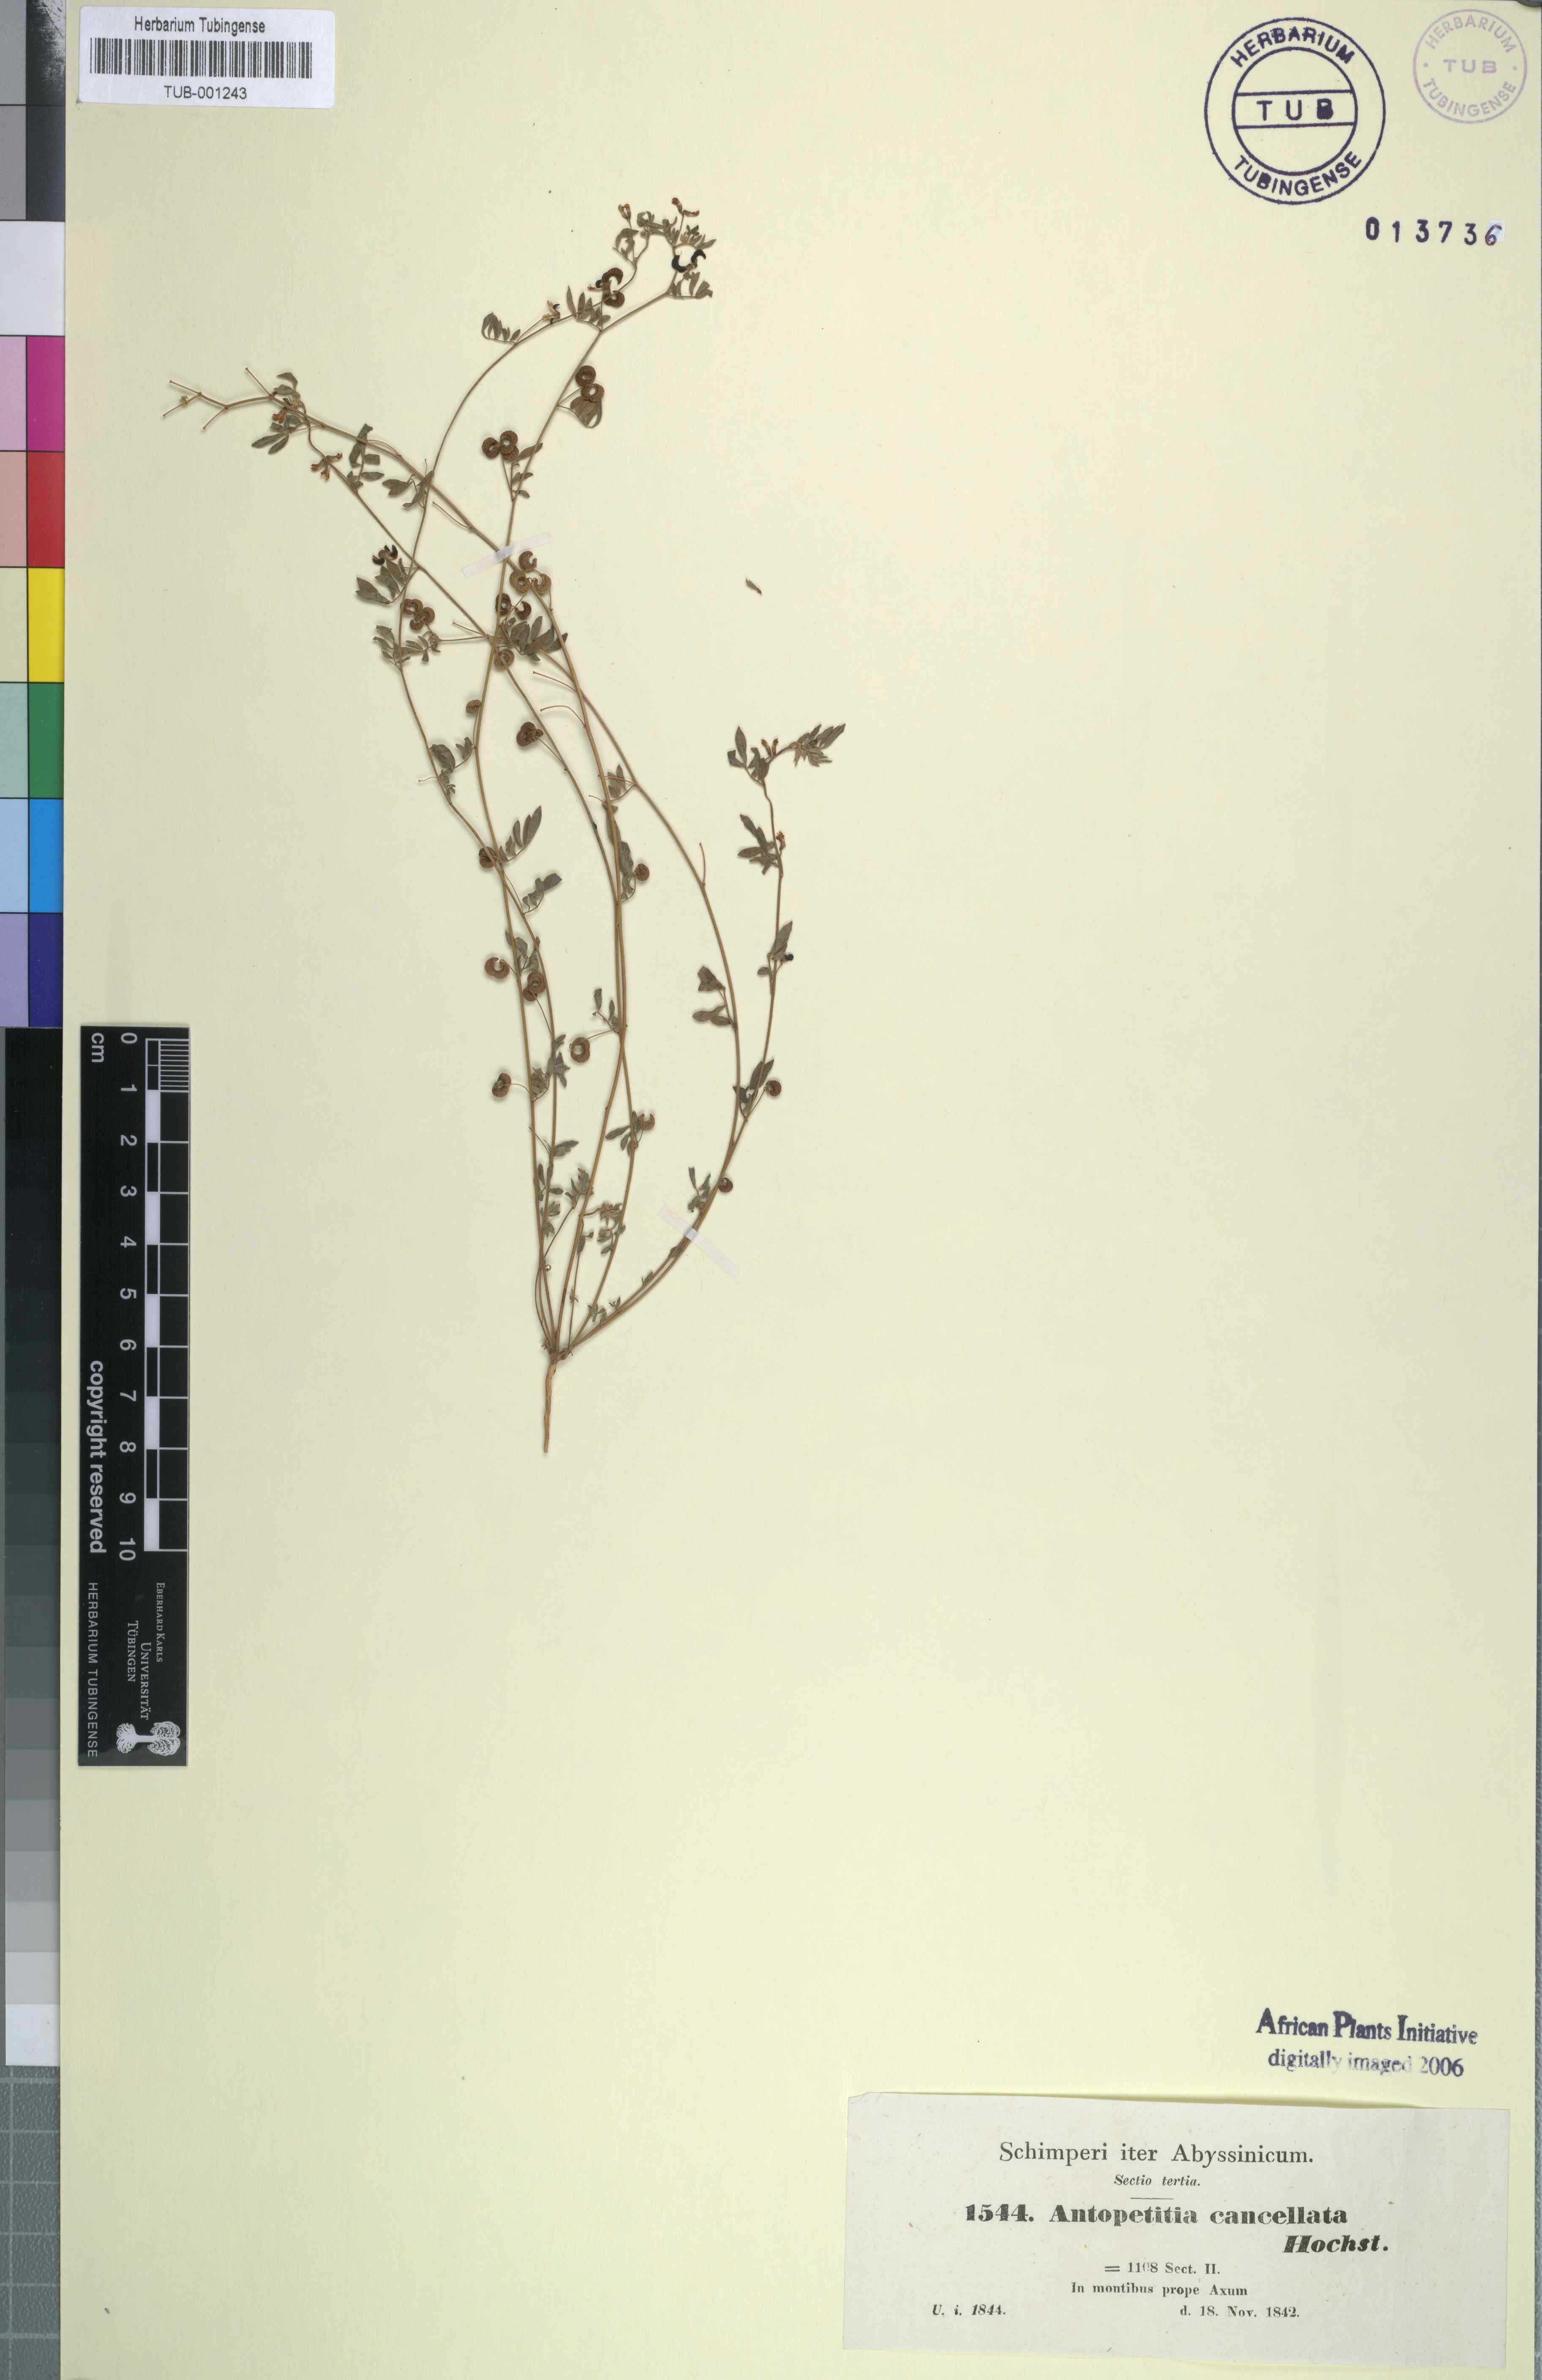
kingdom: Plantae
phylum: Tracheophyta
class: Magnoliopsida
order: Fabales
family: Fabaceae
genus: Helminthocarpum
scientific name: Helminthocarpum abyssinicum
